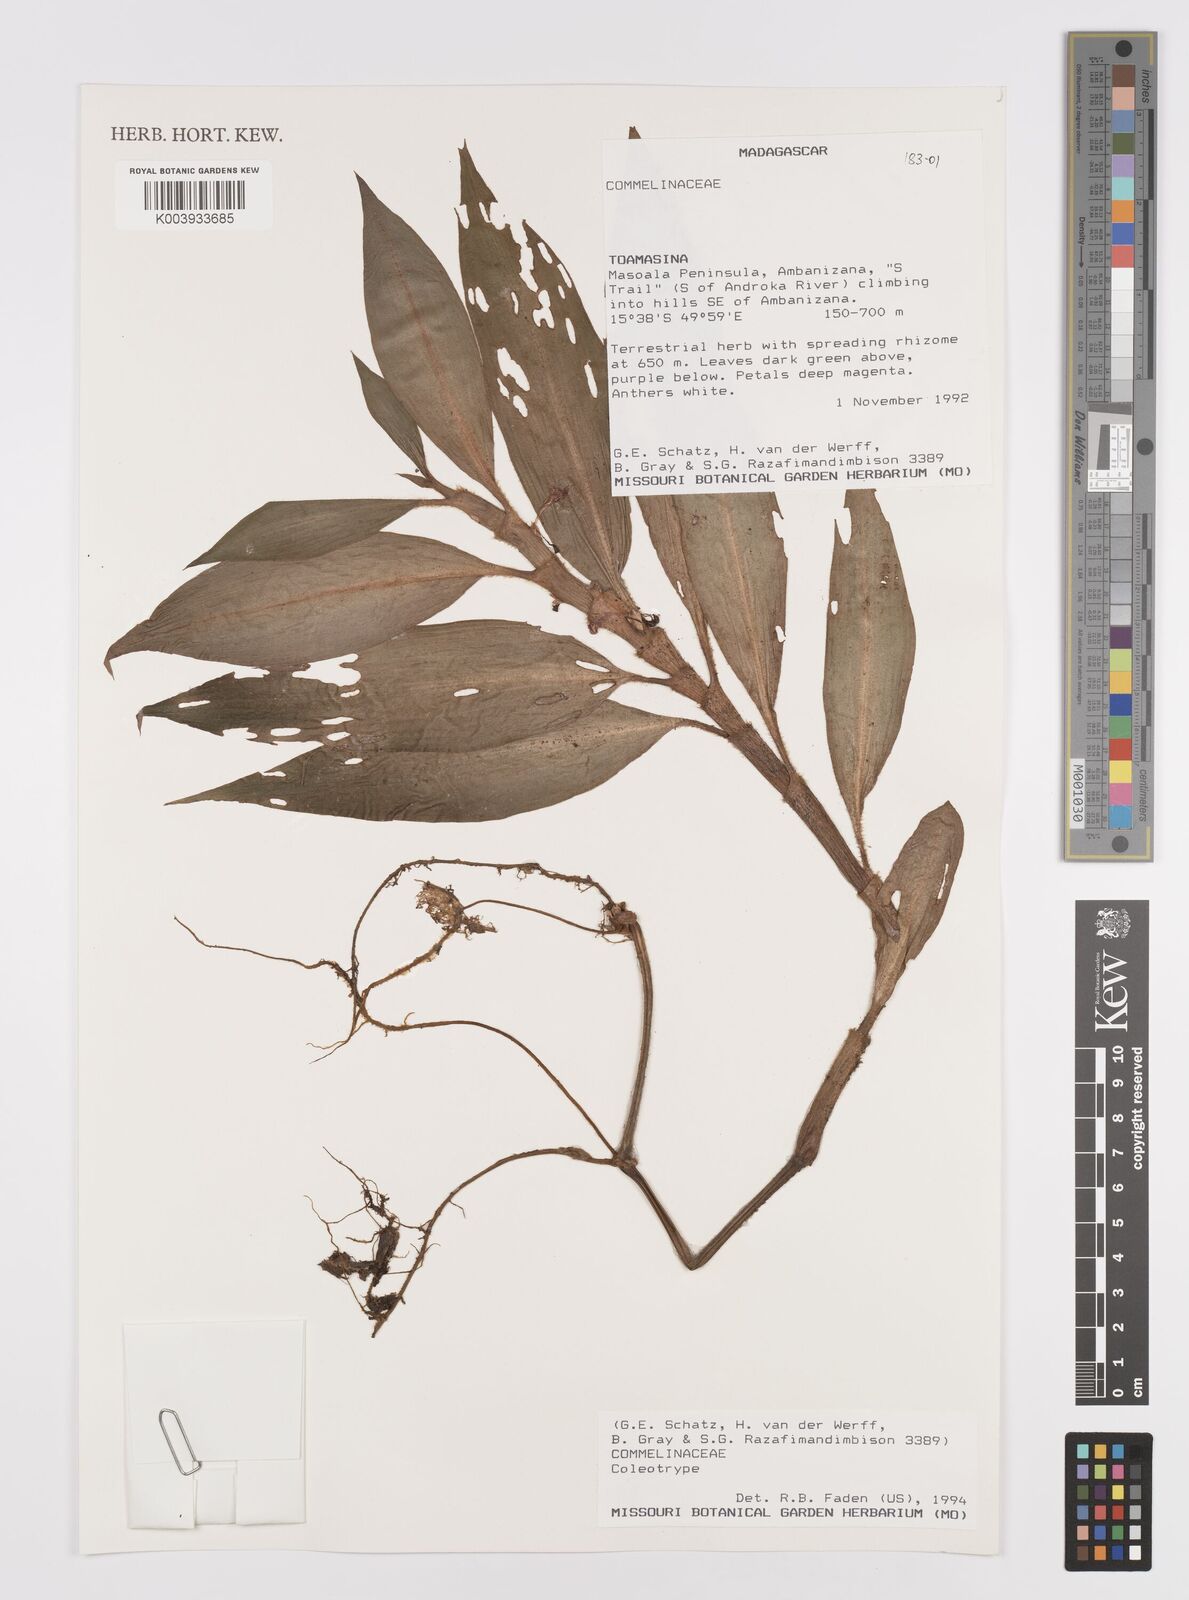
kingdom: Plantae
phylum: Tracheophyta
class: Liliopsida
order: Commelinales
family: Commelinaceae
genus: Coleotrype
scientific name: Coleotrype
